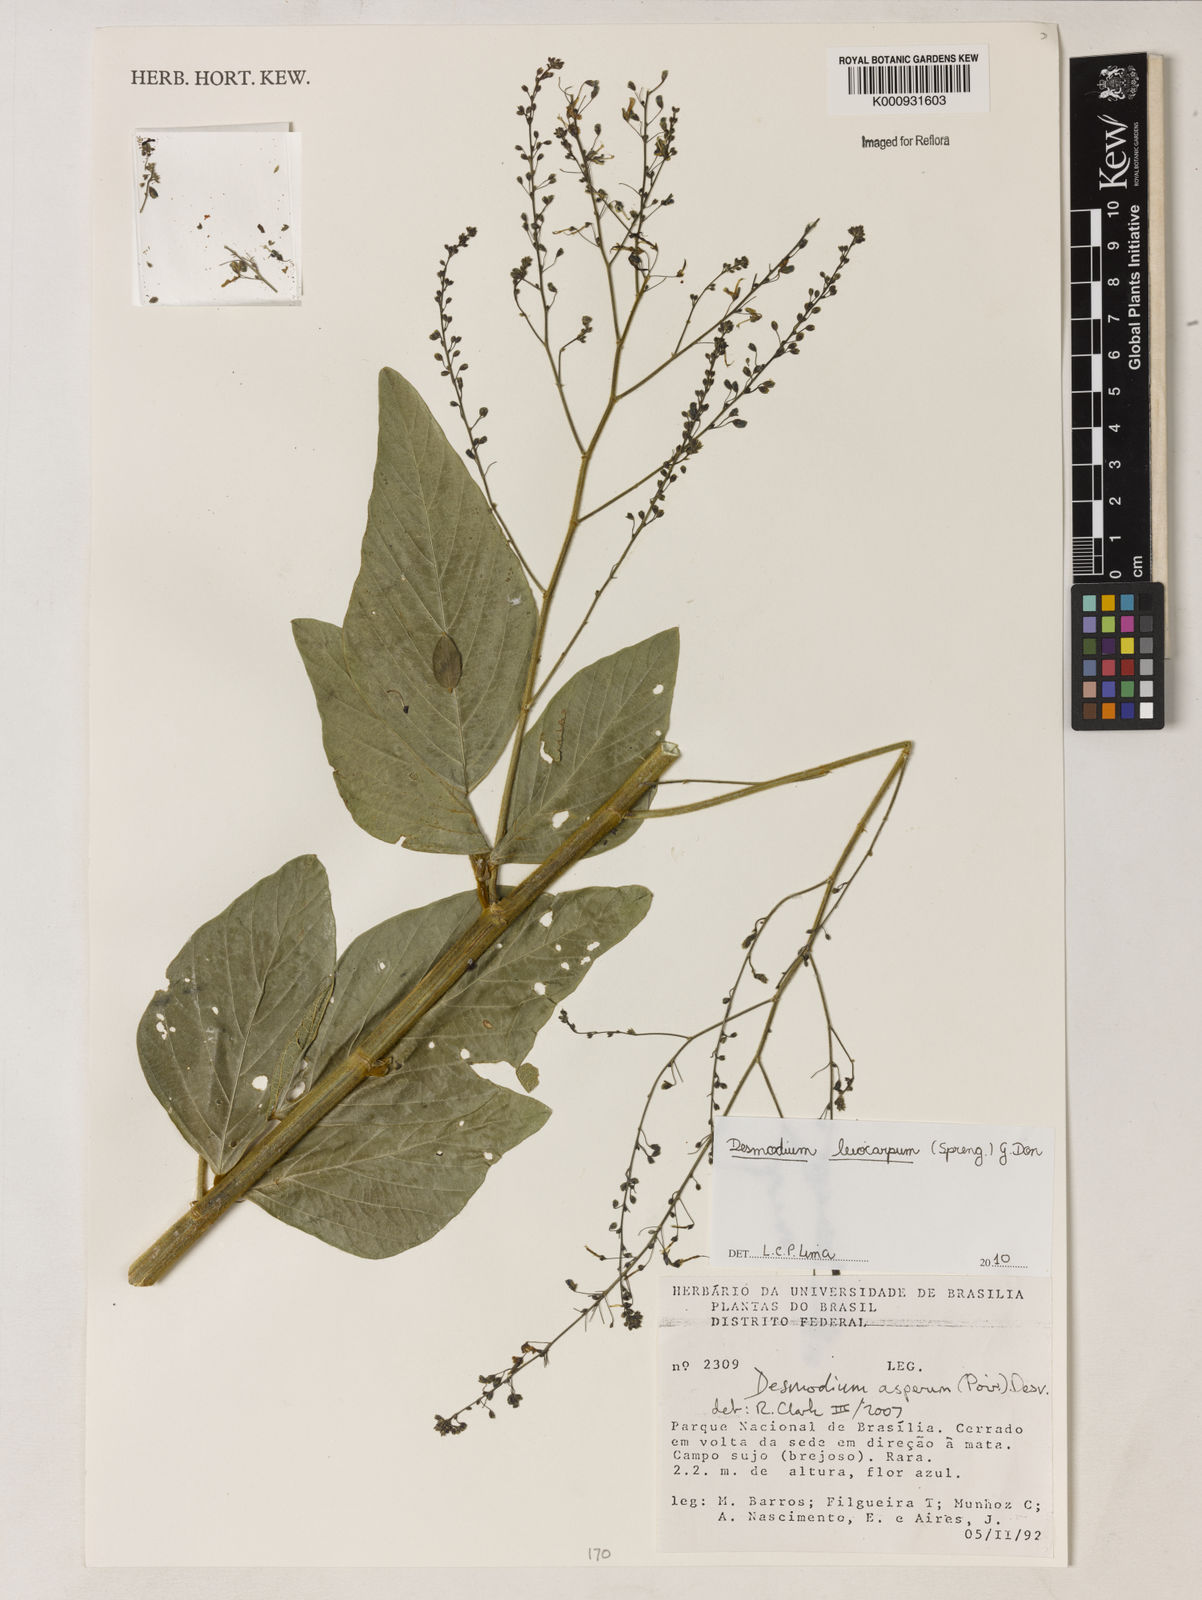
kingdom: Plantae
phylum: Tracheophyta
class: Magnoliopsida
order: Fabales
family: Fabaceae
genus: Desmodium
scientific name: Desmodium leiocarpum
